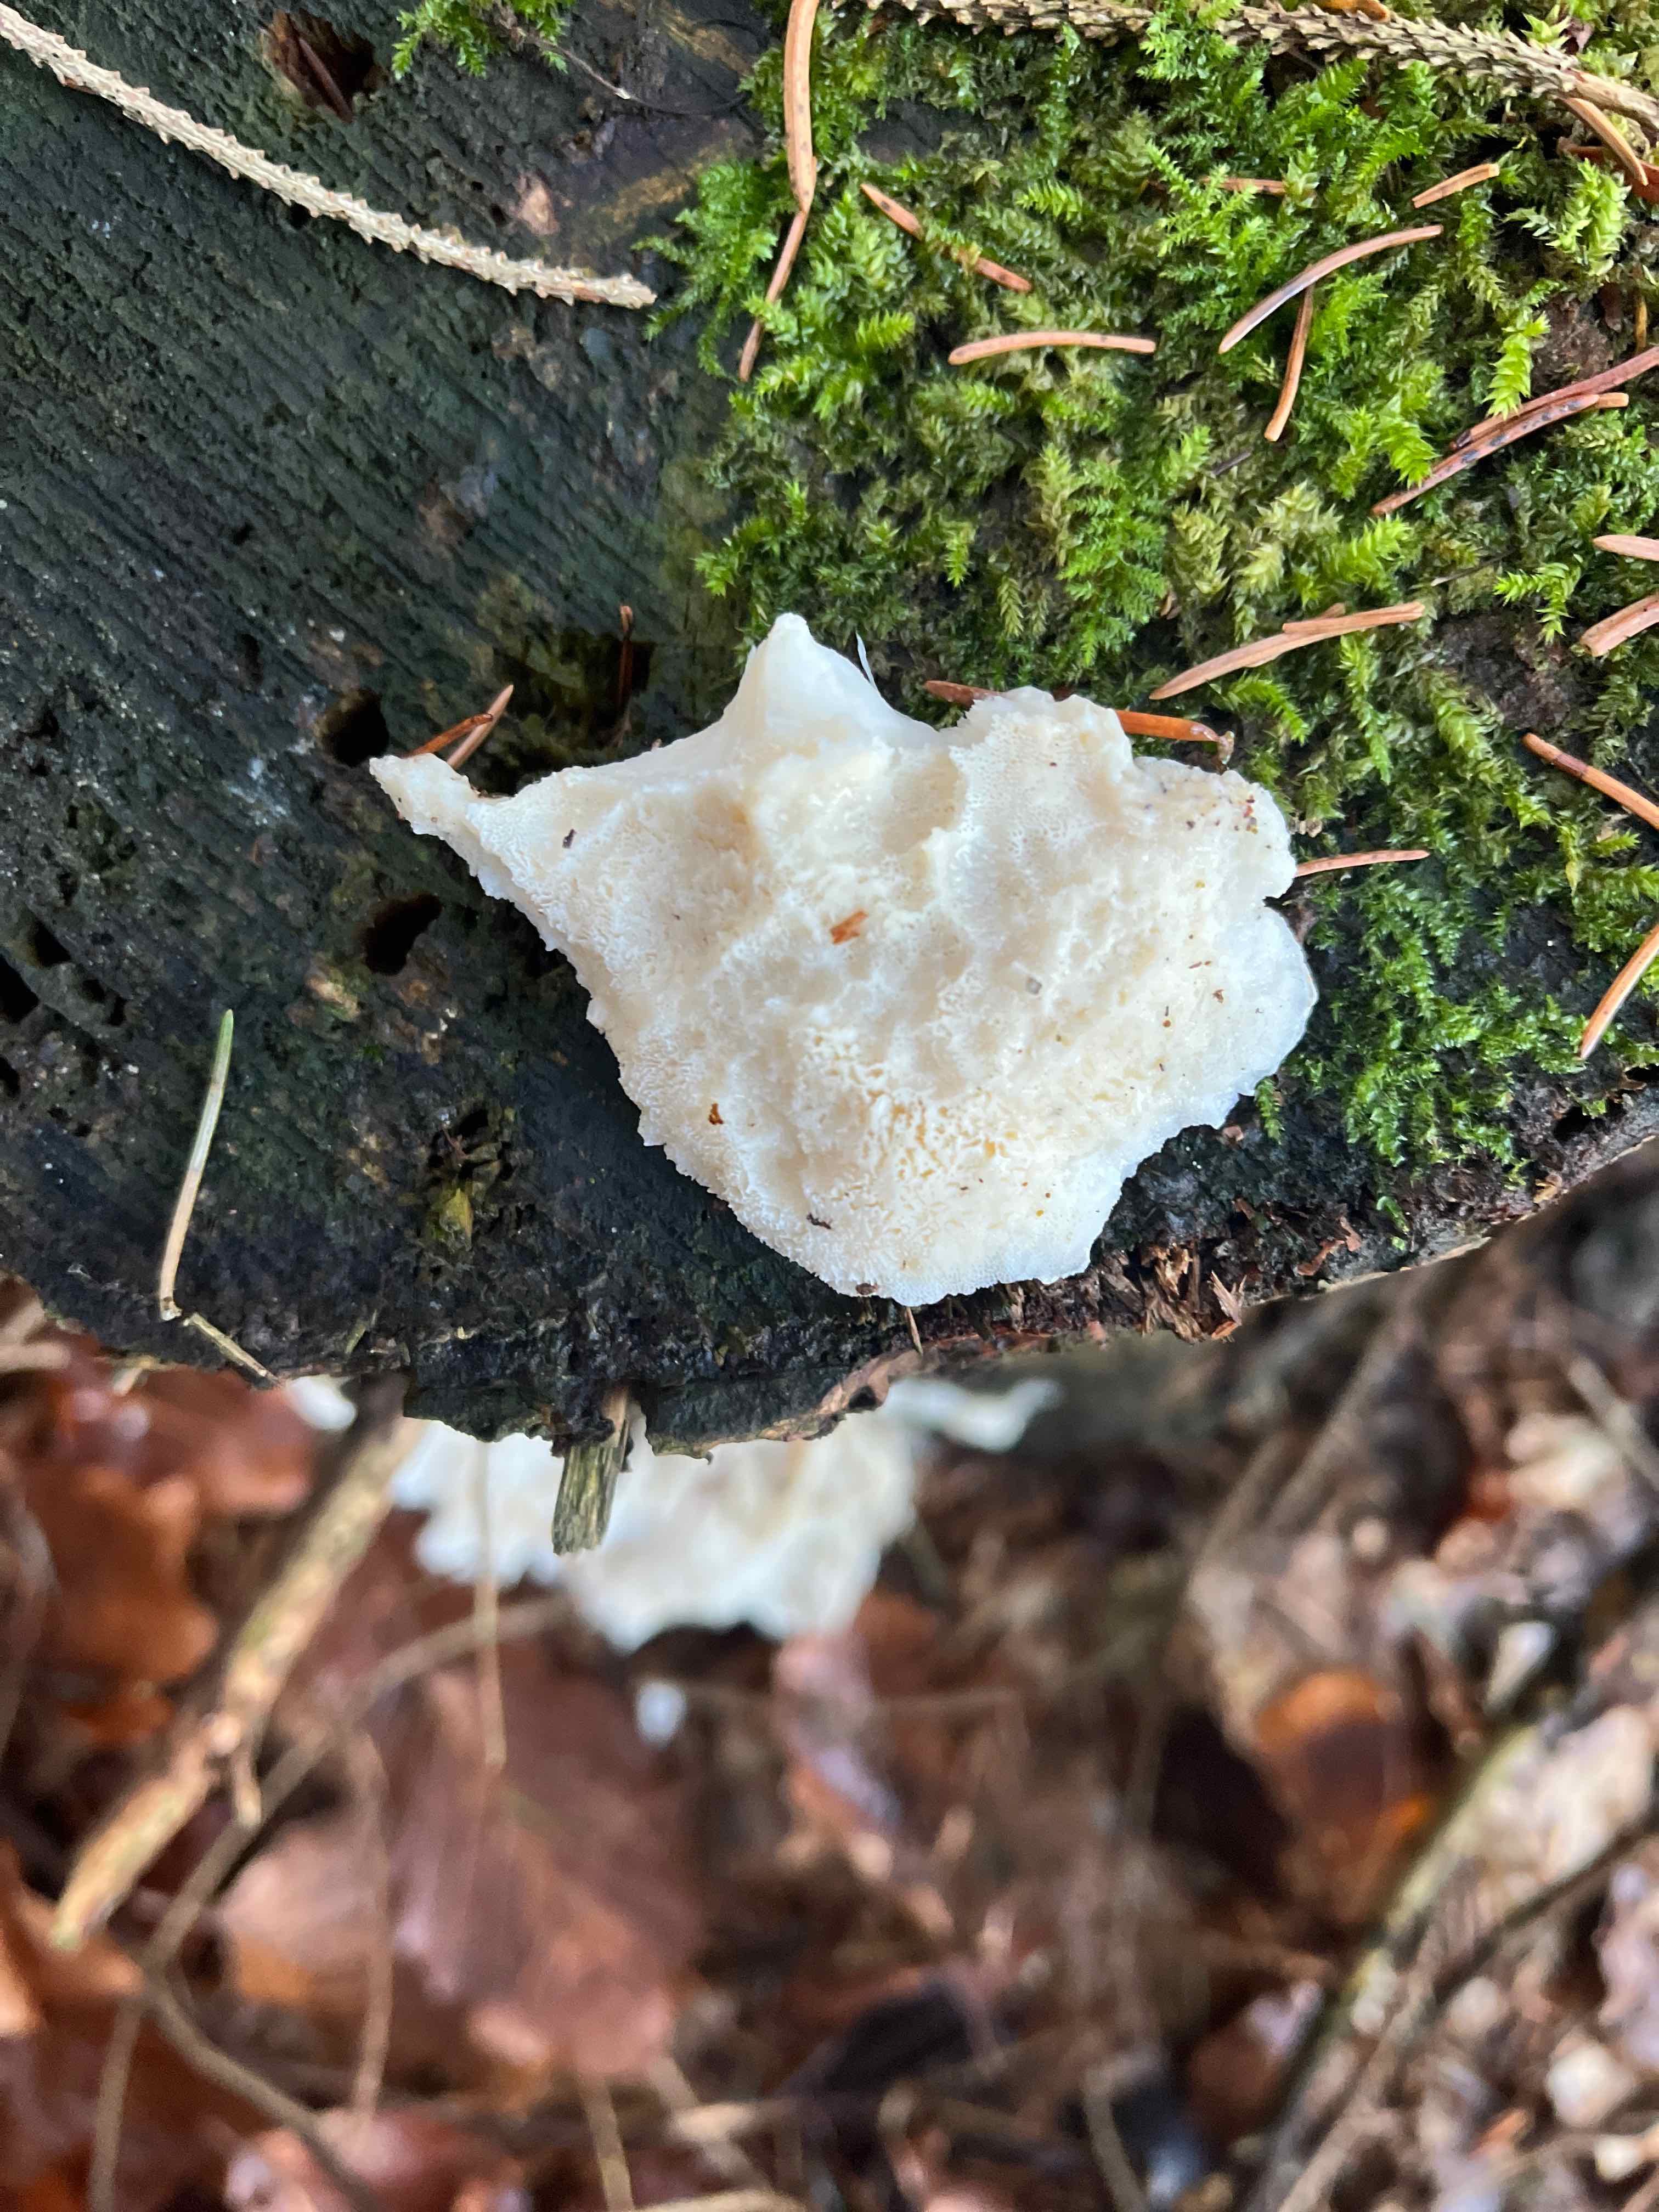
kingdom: Fungi
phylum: Basidiomycota
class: Agaricomycetes
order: Polyporales
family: Dacryobolaceae
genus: Postia
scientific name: Postia
